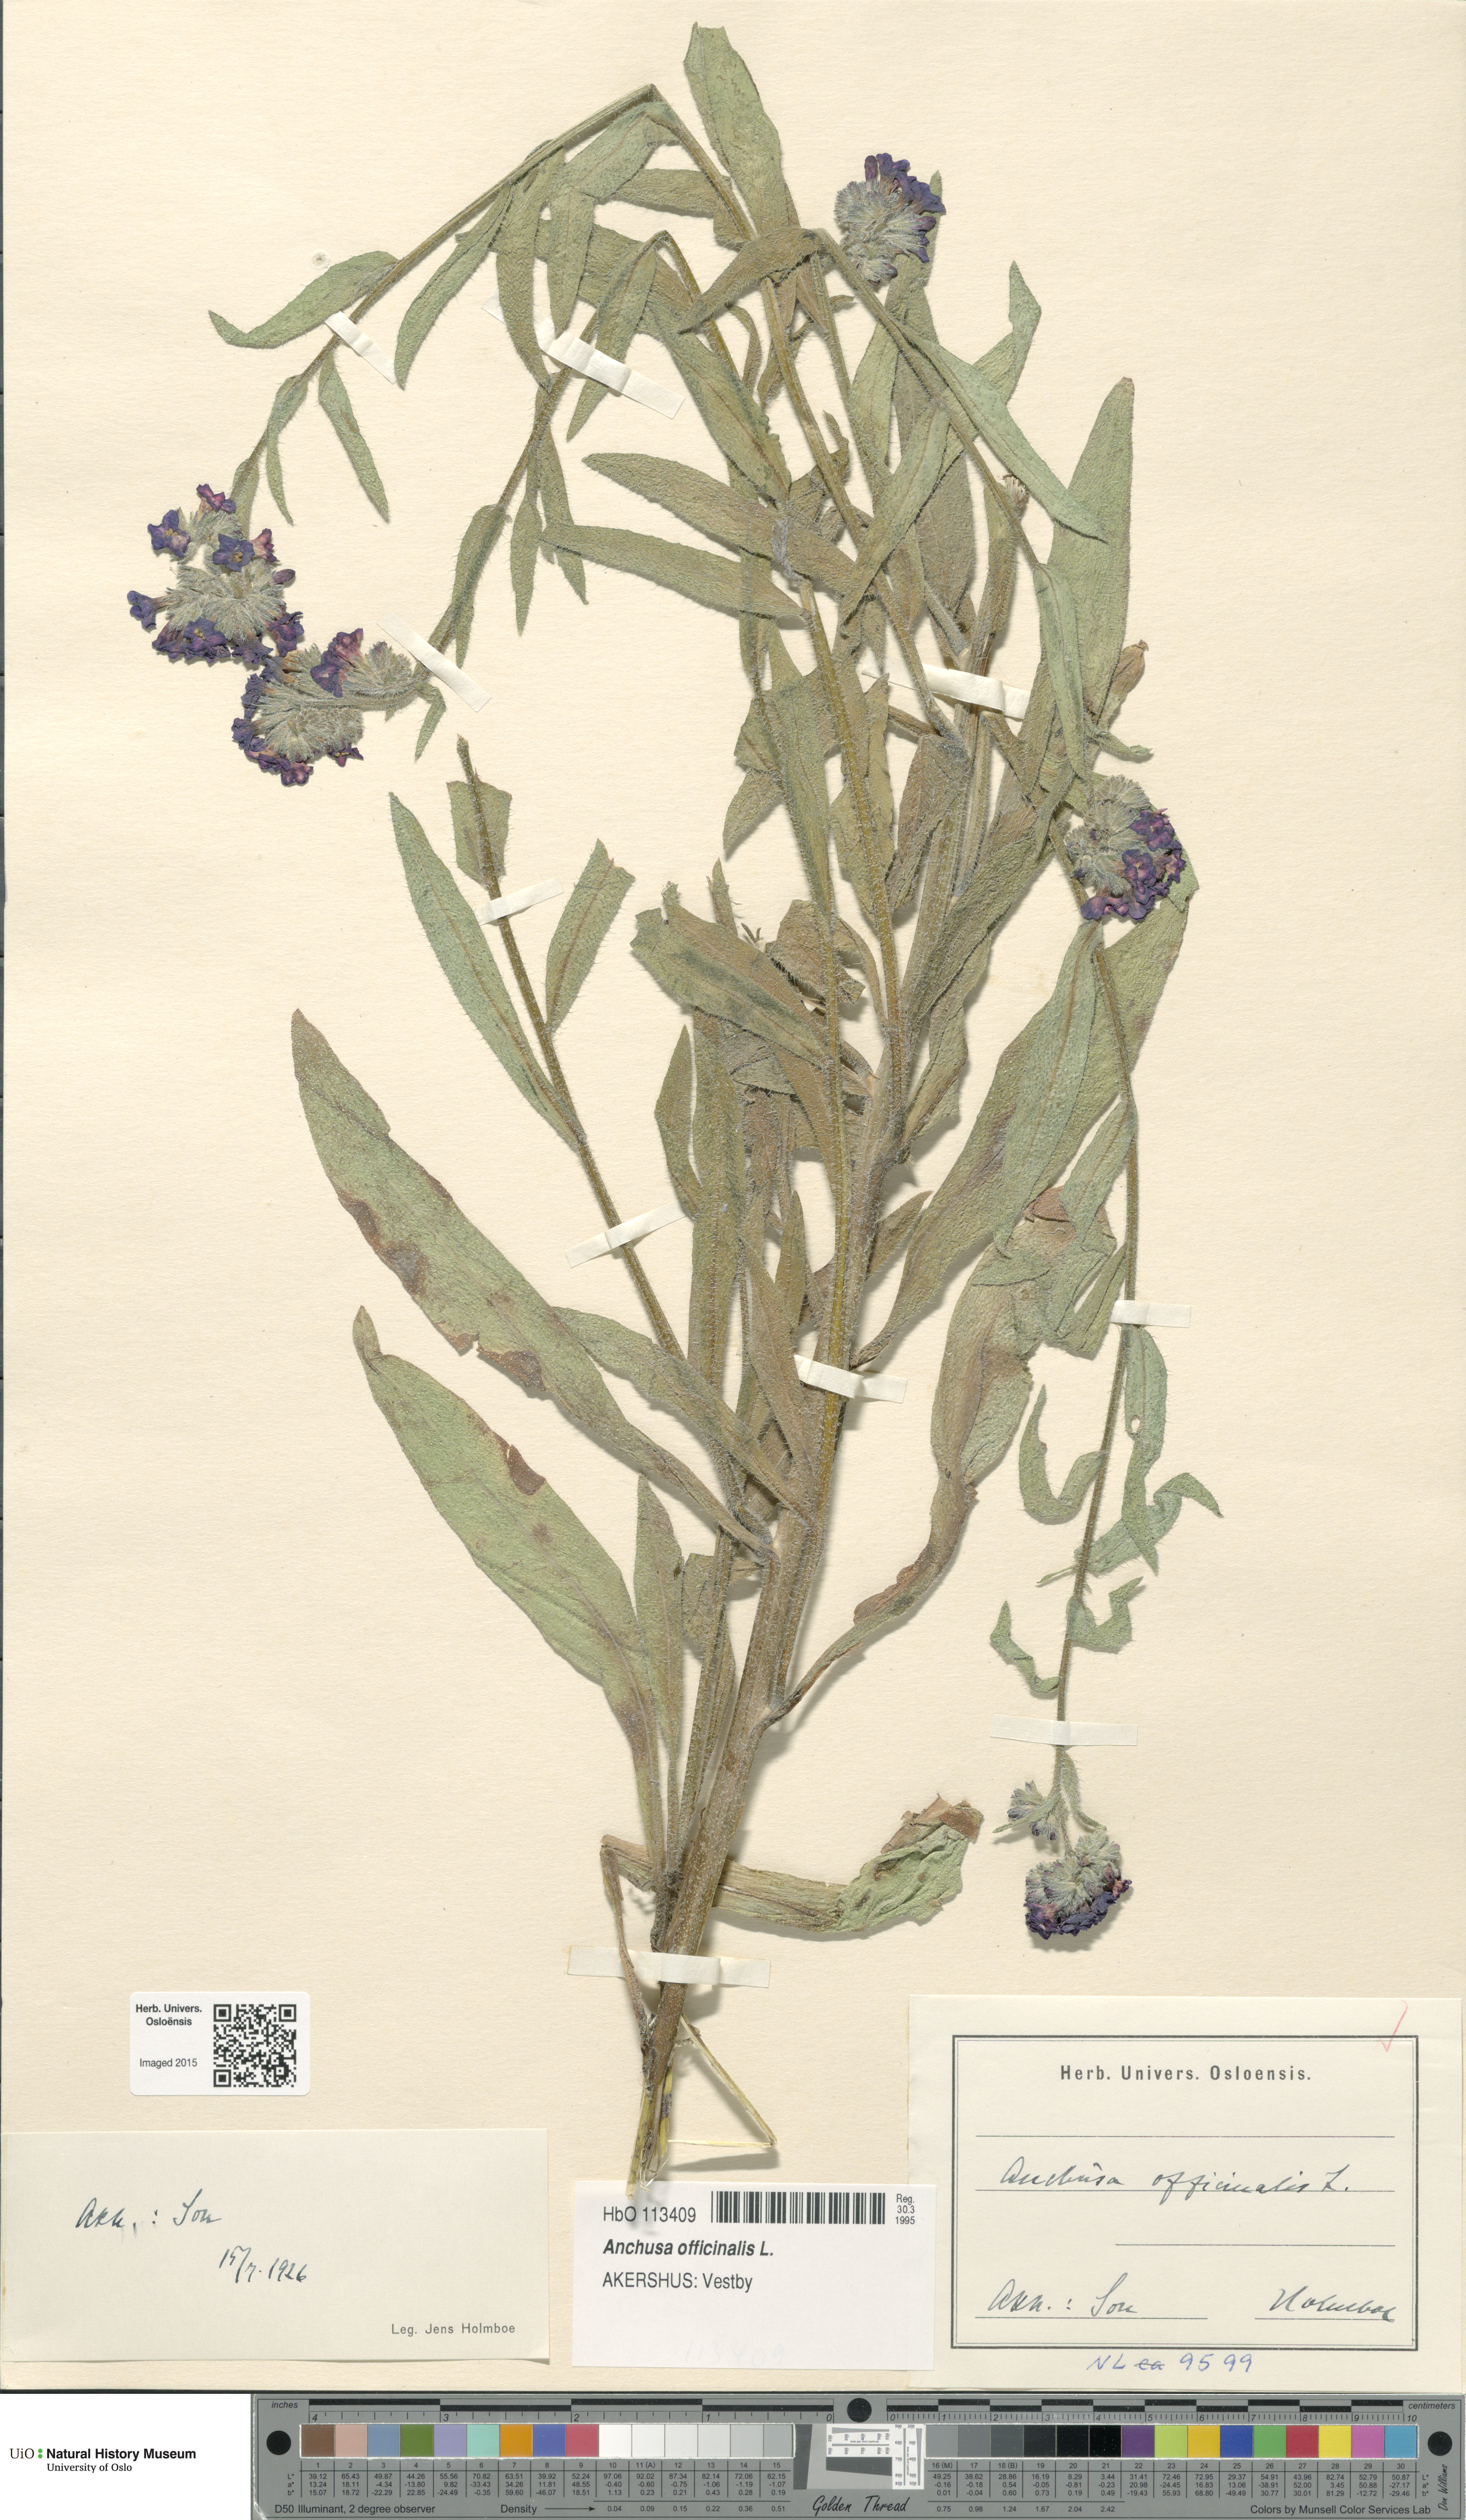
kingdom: Plantae
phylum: Tracheophyta
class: Magnoliopsida
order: Boraginales
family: Boraginaceae
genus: Anchusa
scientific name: Anchusa officinalis
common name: Alkanet
